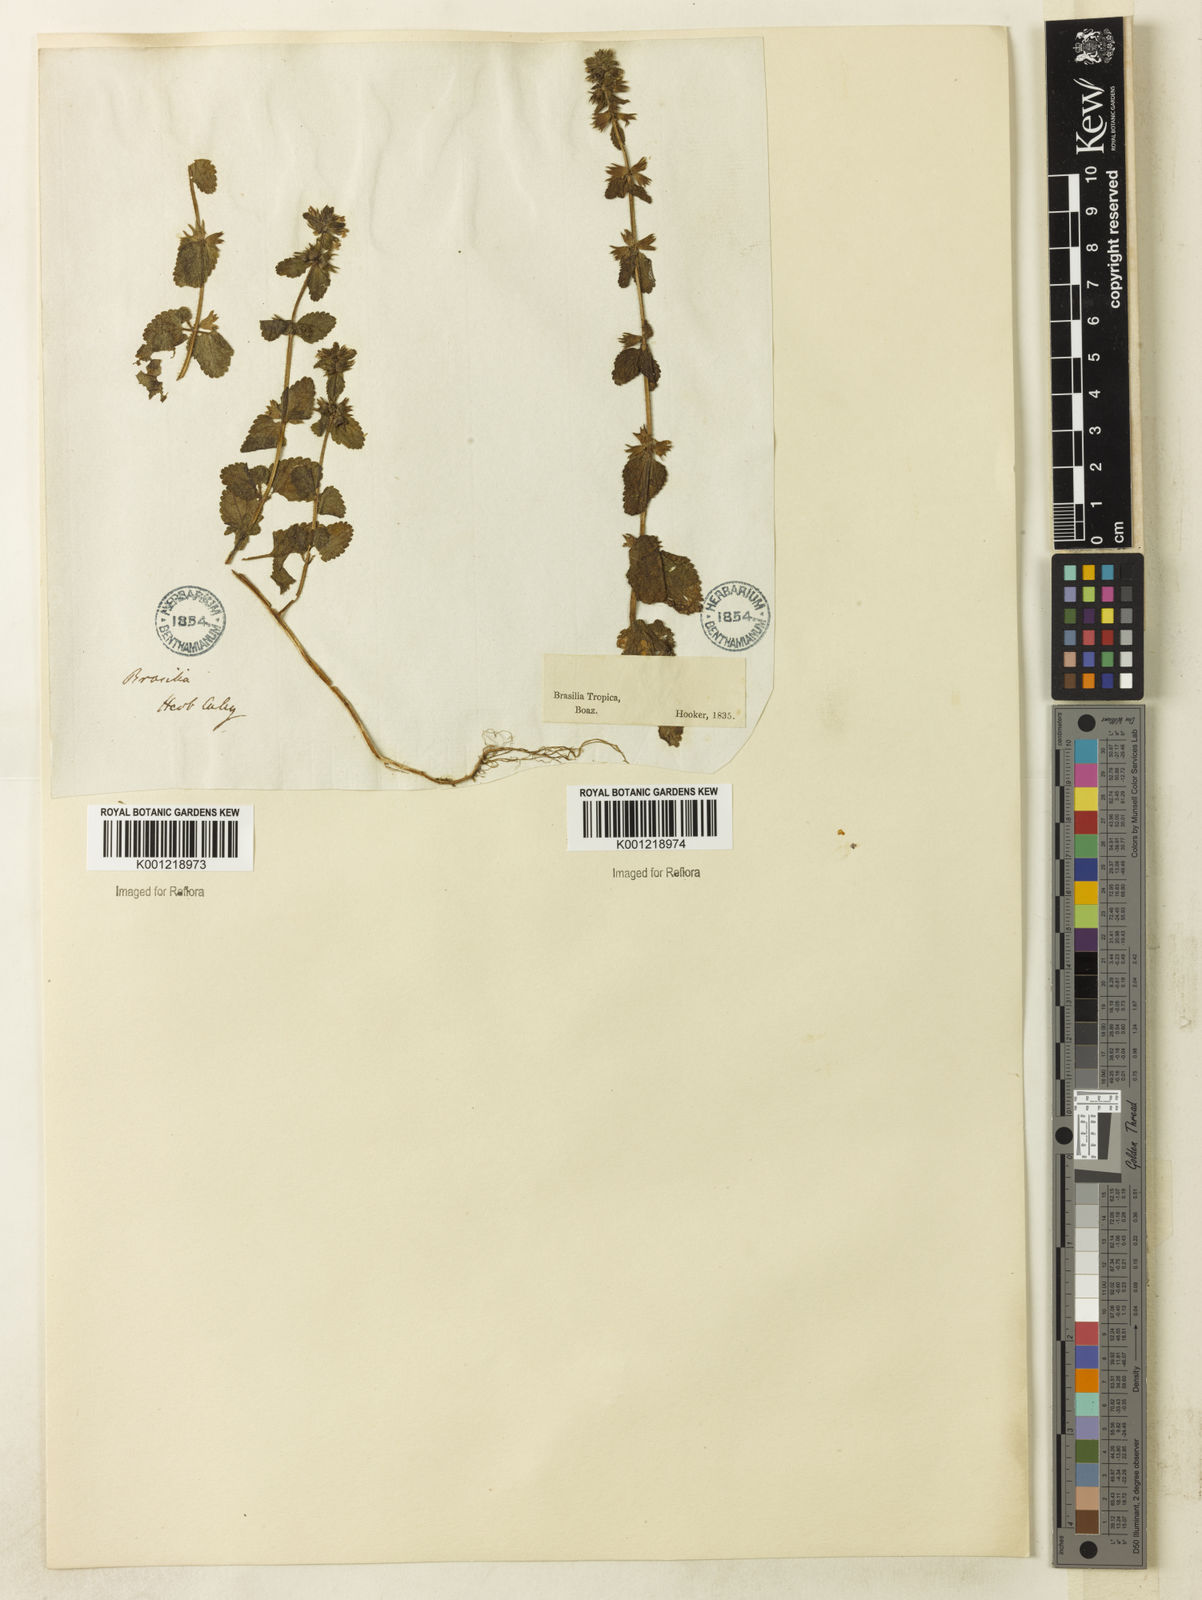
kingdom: Plantae
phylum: Tracheophyta
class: Magnoliopsida
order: Lamiales
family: Lamiaceae
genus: Stachys
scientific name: Stachys arvensis
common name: Field woundwort
